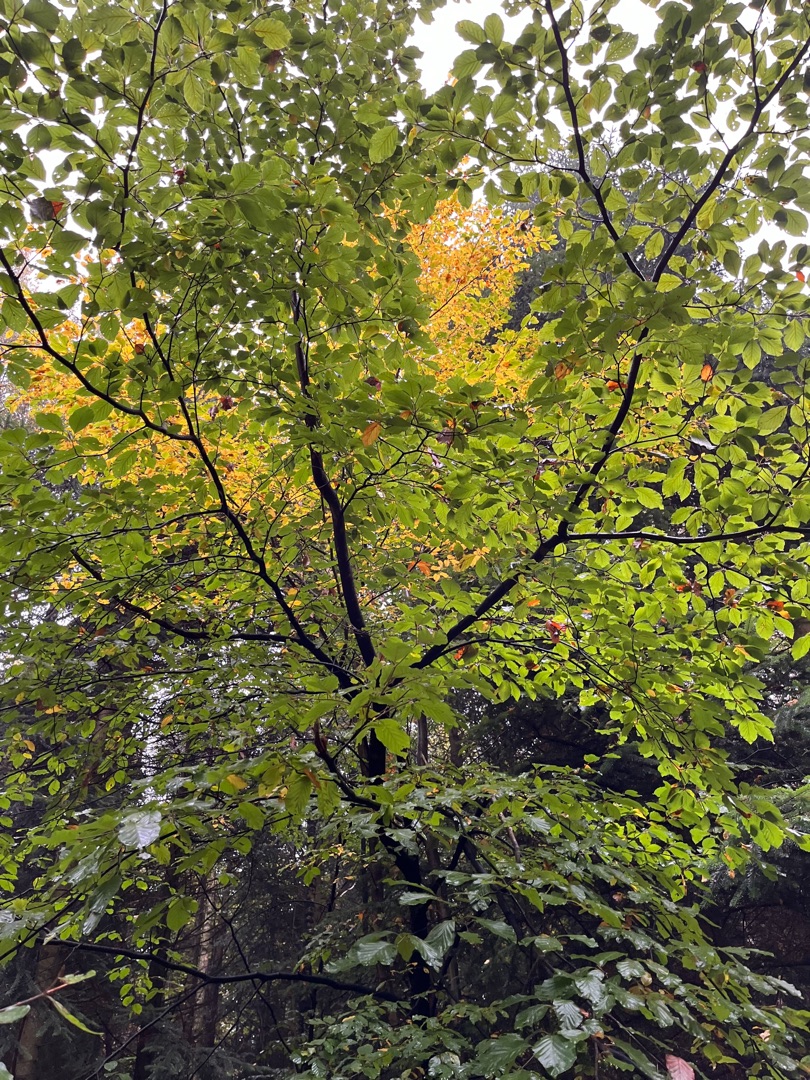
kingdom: Plantae
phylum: Tracheophyta
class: Magnoliopsida
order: Fagales
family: Fagaceae
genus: Fagus
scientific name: Fagus sylvatica
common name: Bøg
